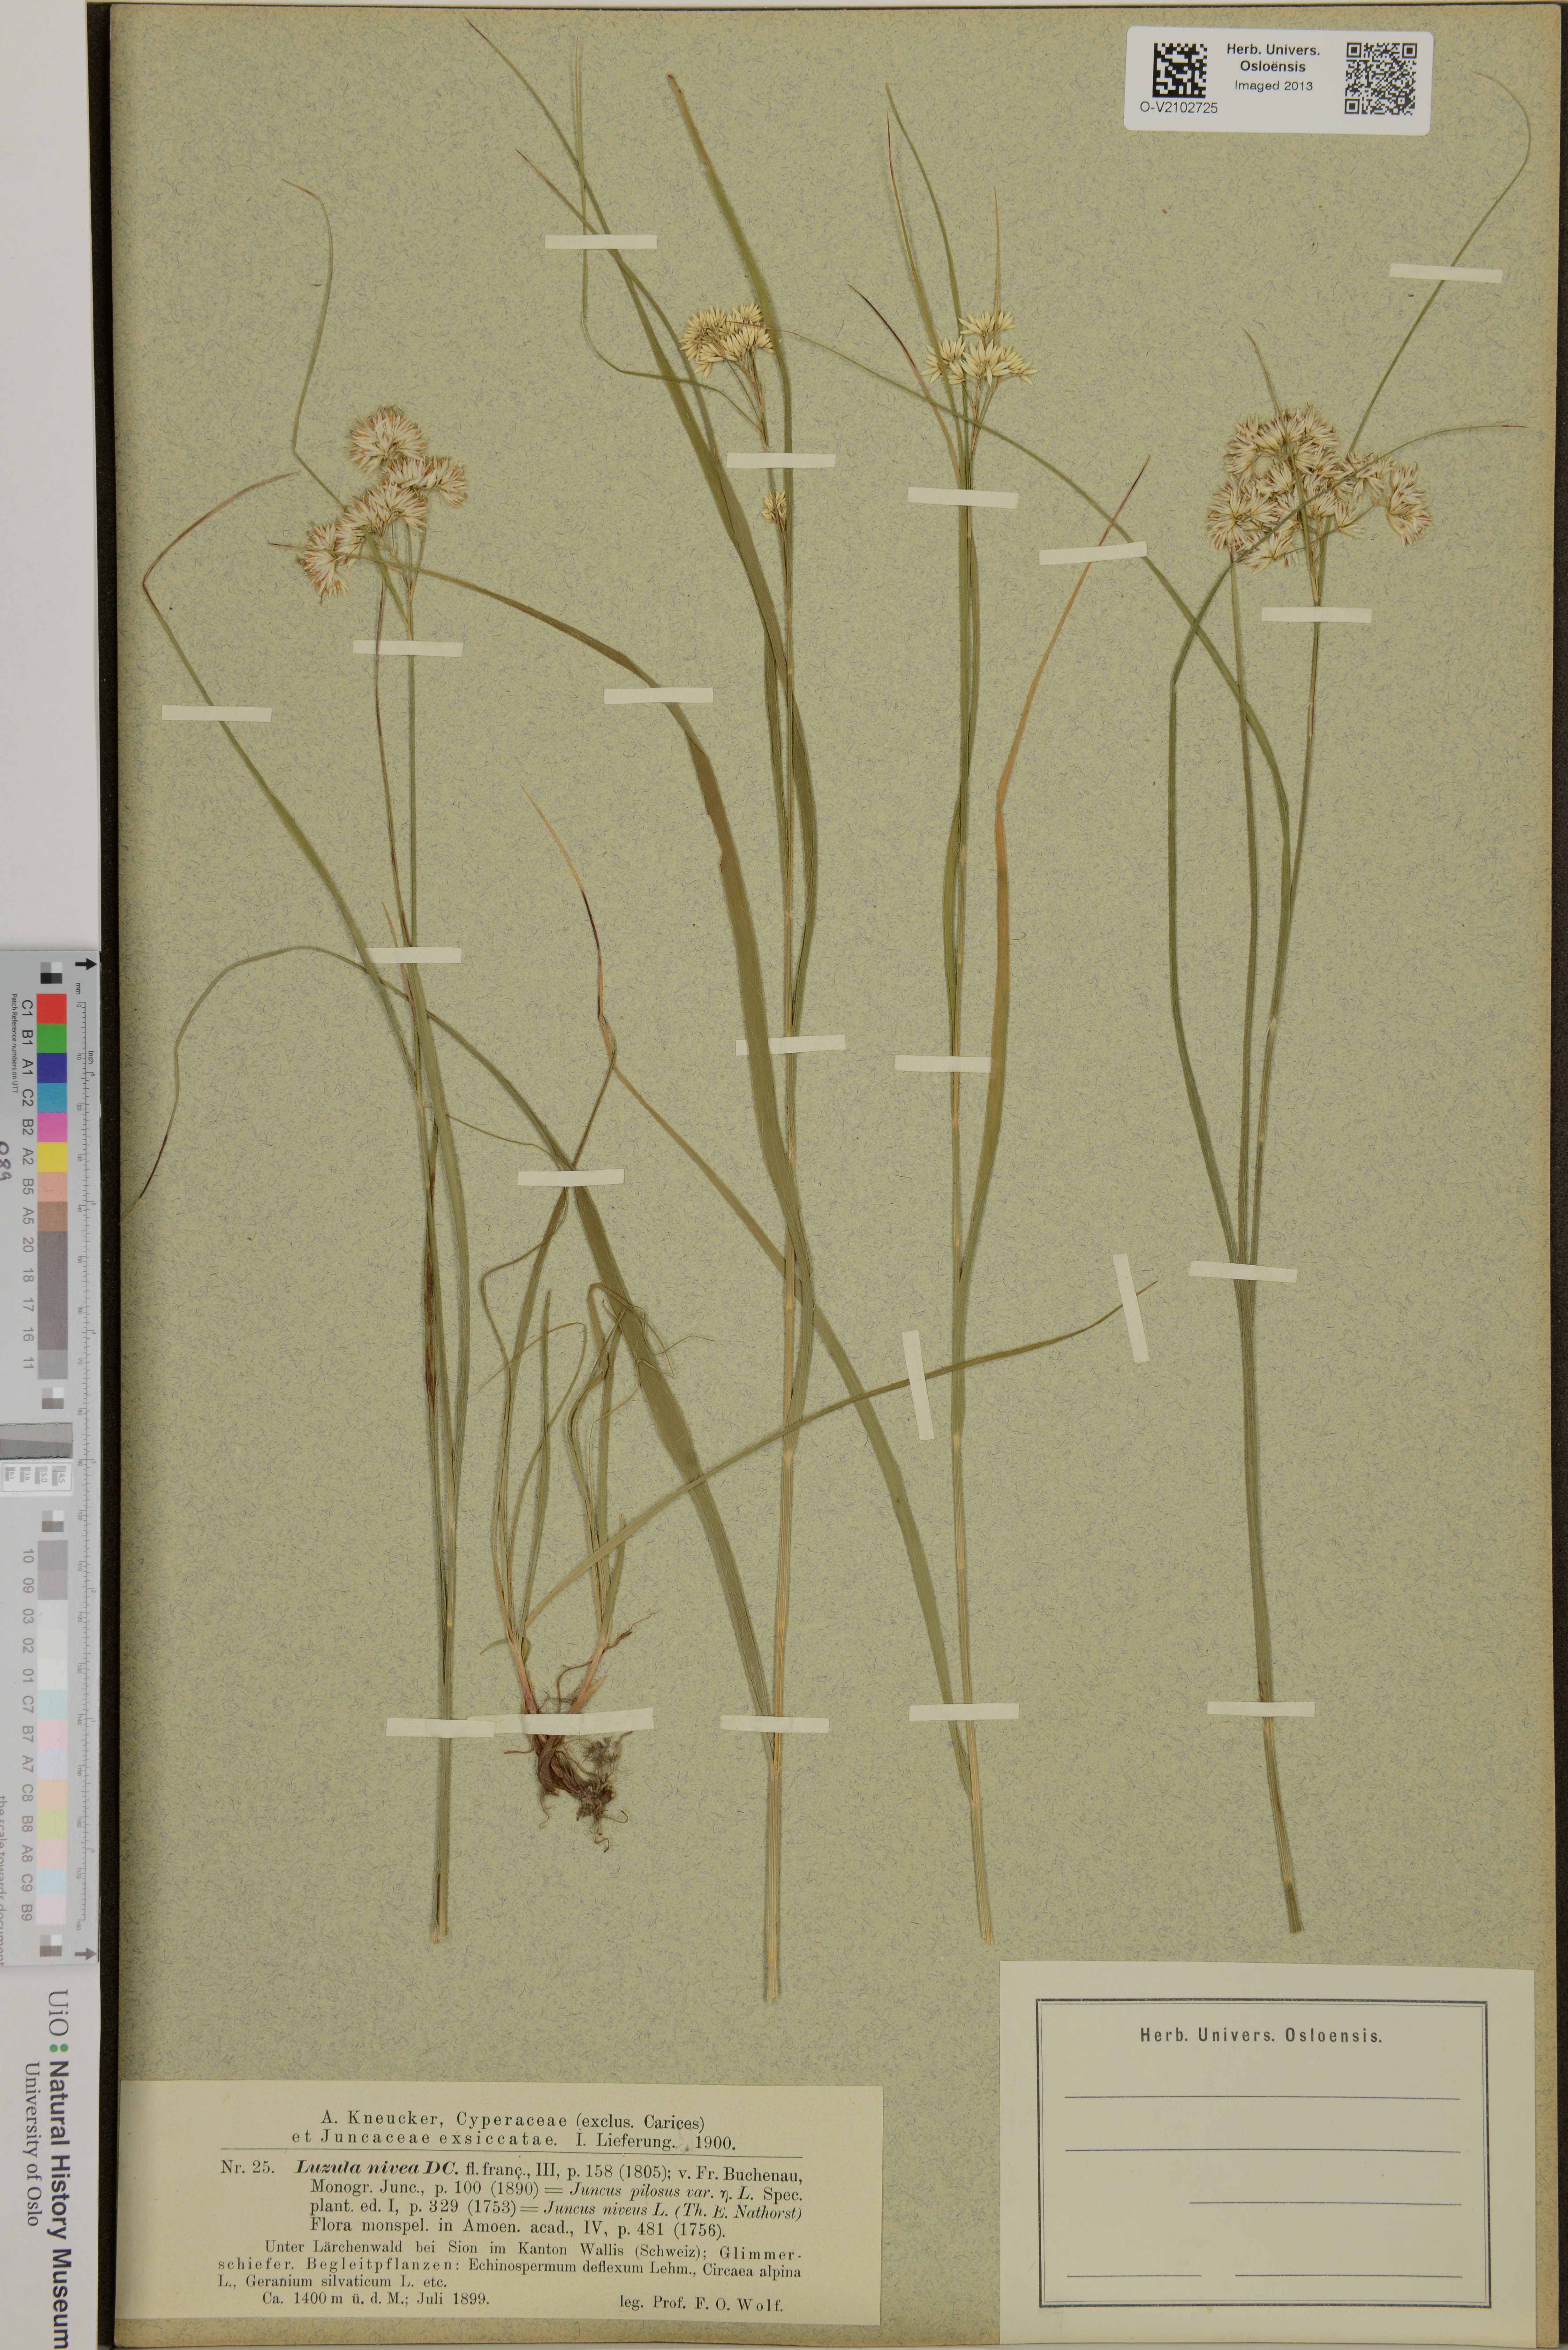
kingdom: Plantae
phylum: Tracheophyta
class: Liliopsida
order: Poales
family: Juncaceae
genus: Luzula
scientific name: Luzula nivea
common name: Snow-white wood-rush
